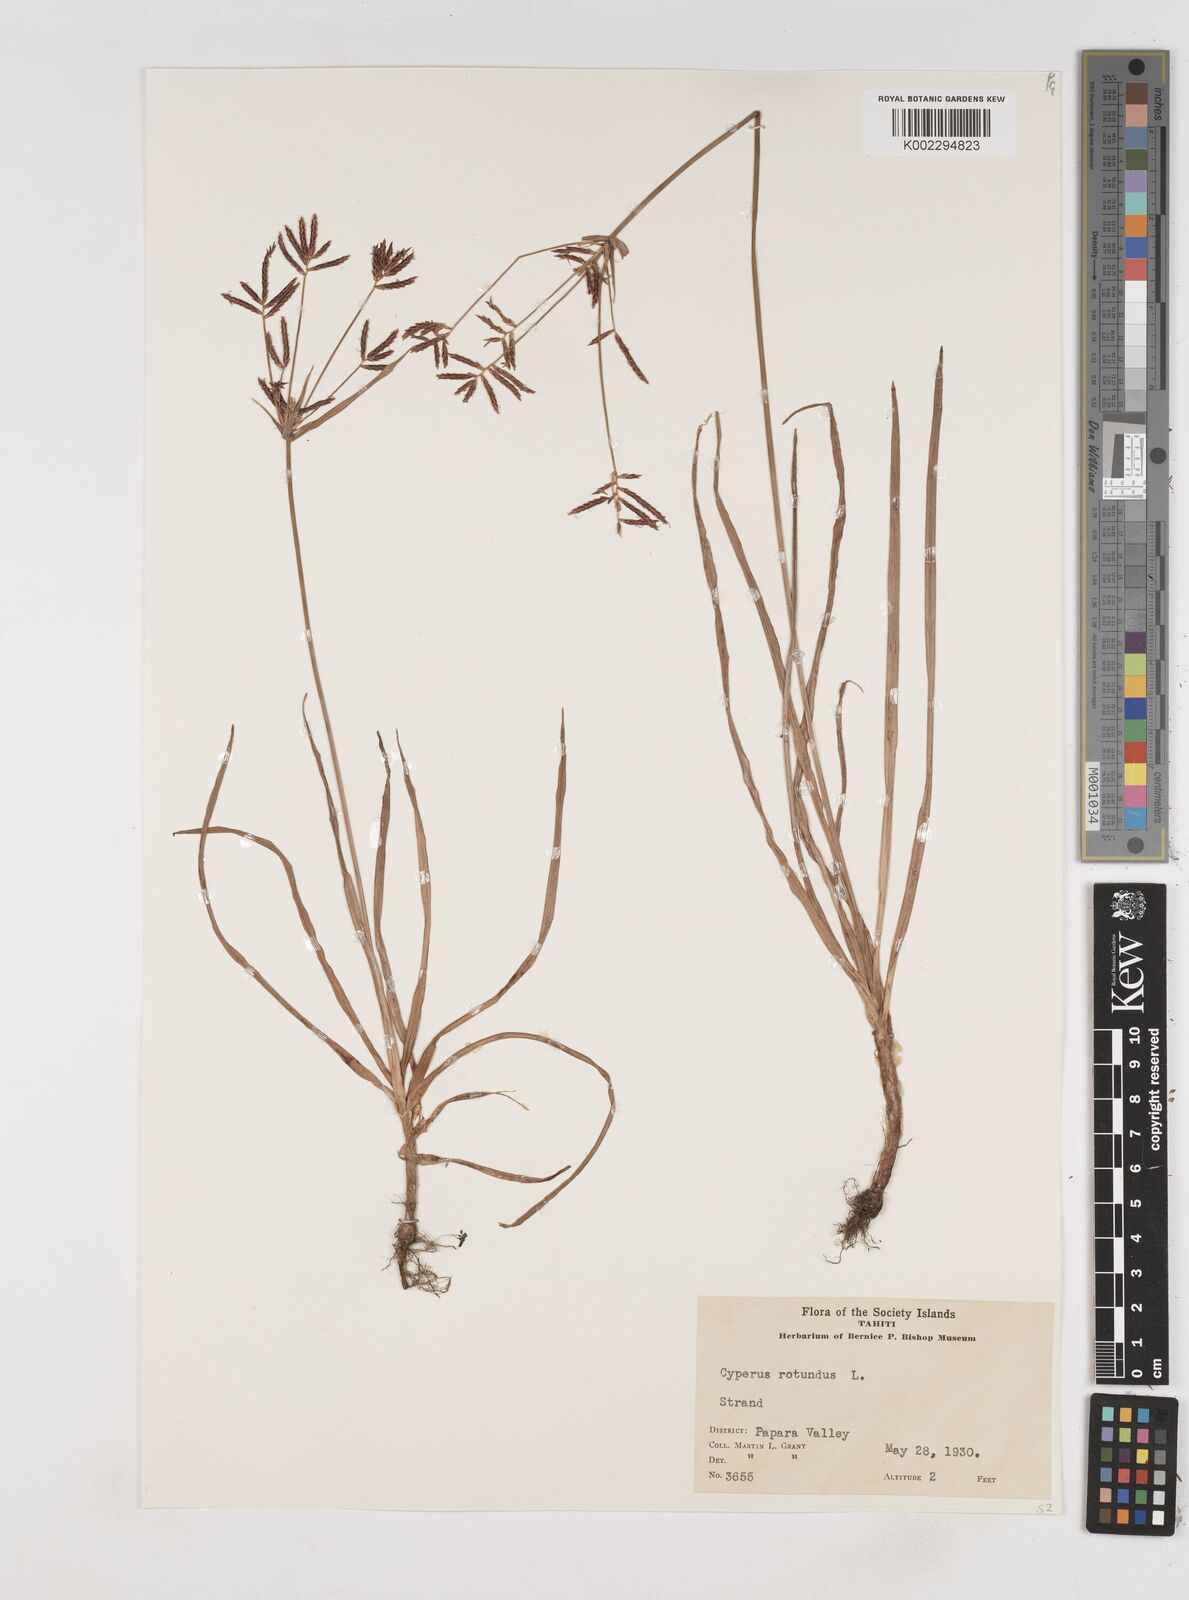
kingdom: Plantae
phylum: Tracheophyta
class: Liliopsida
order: Poales
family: Cyperaceae
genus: Cyperus
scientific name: Cyperus rotundus
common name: Nutgrass
